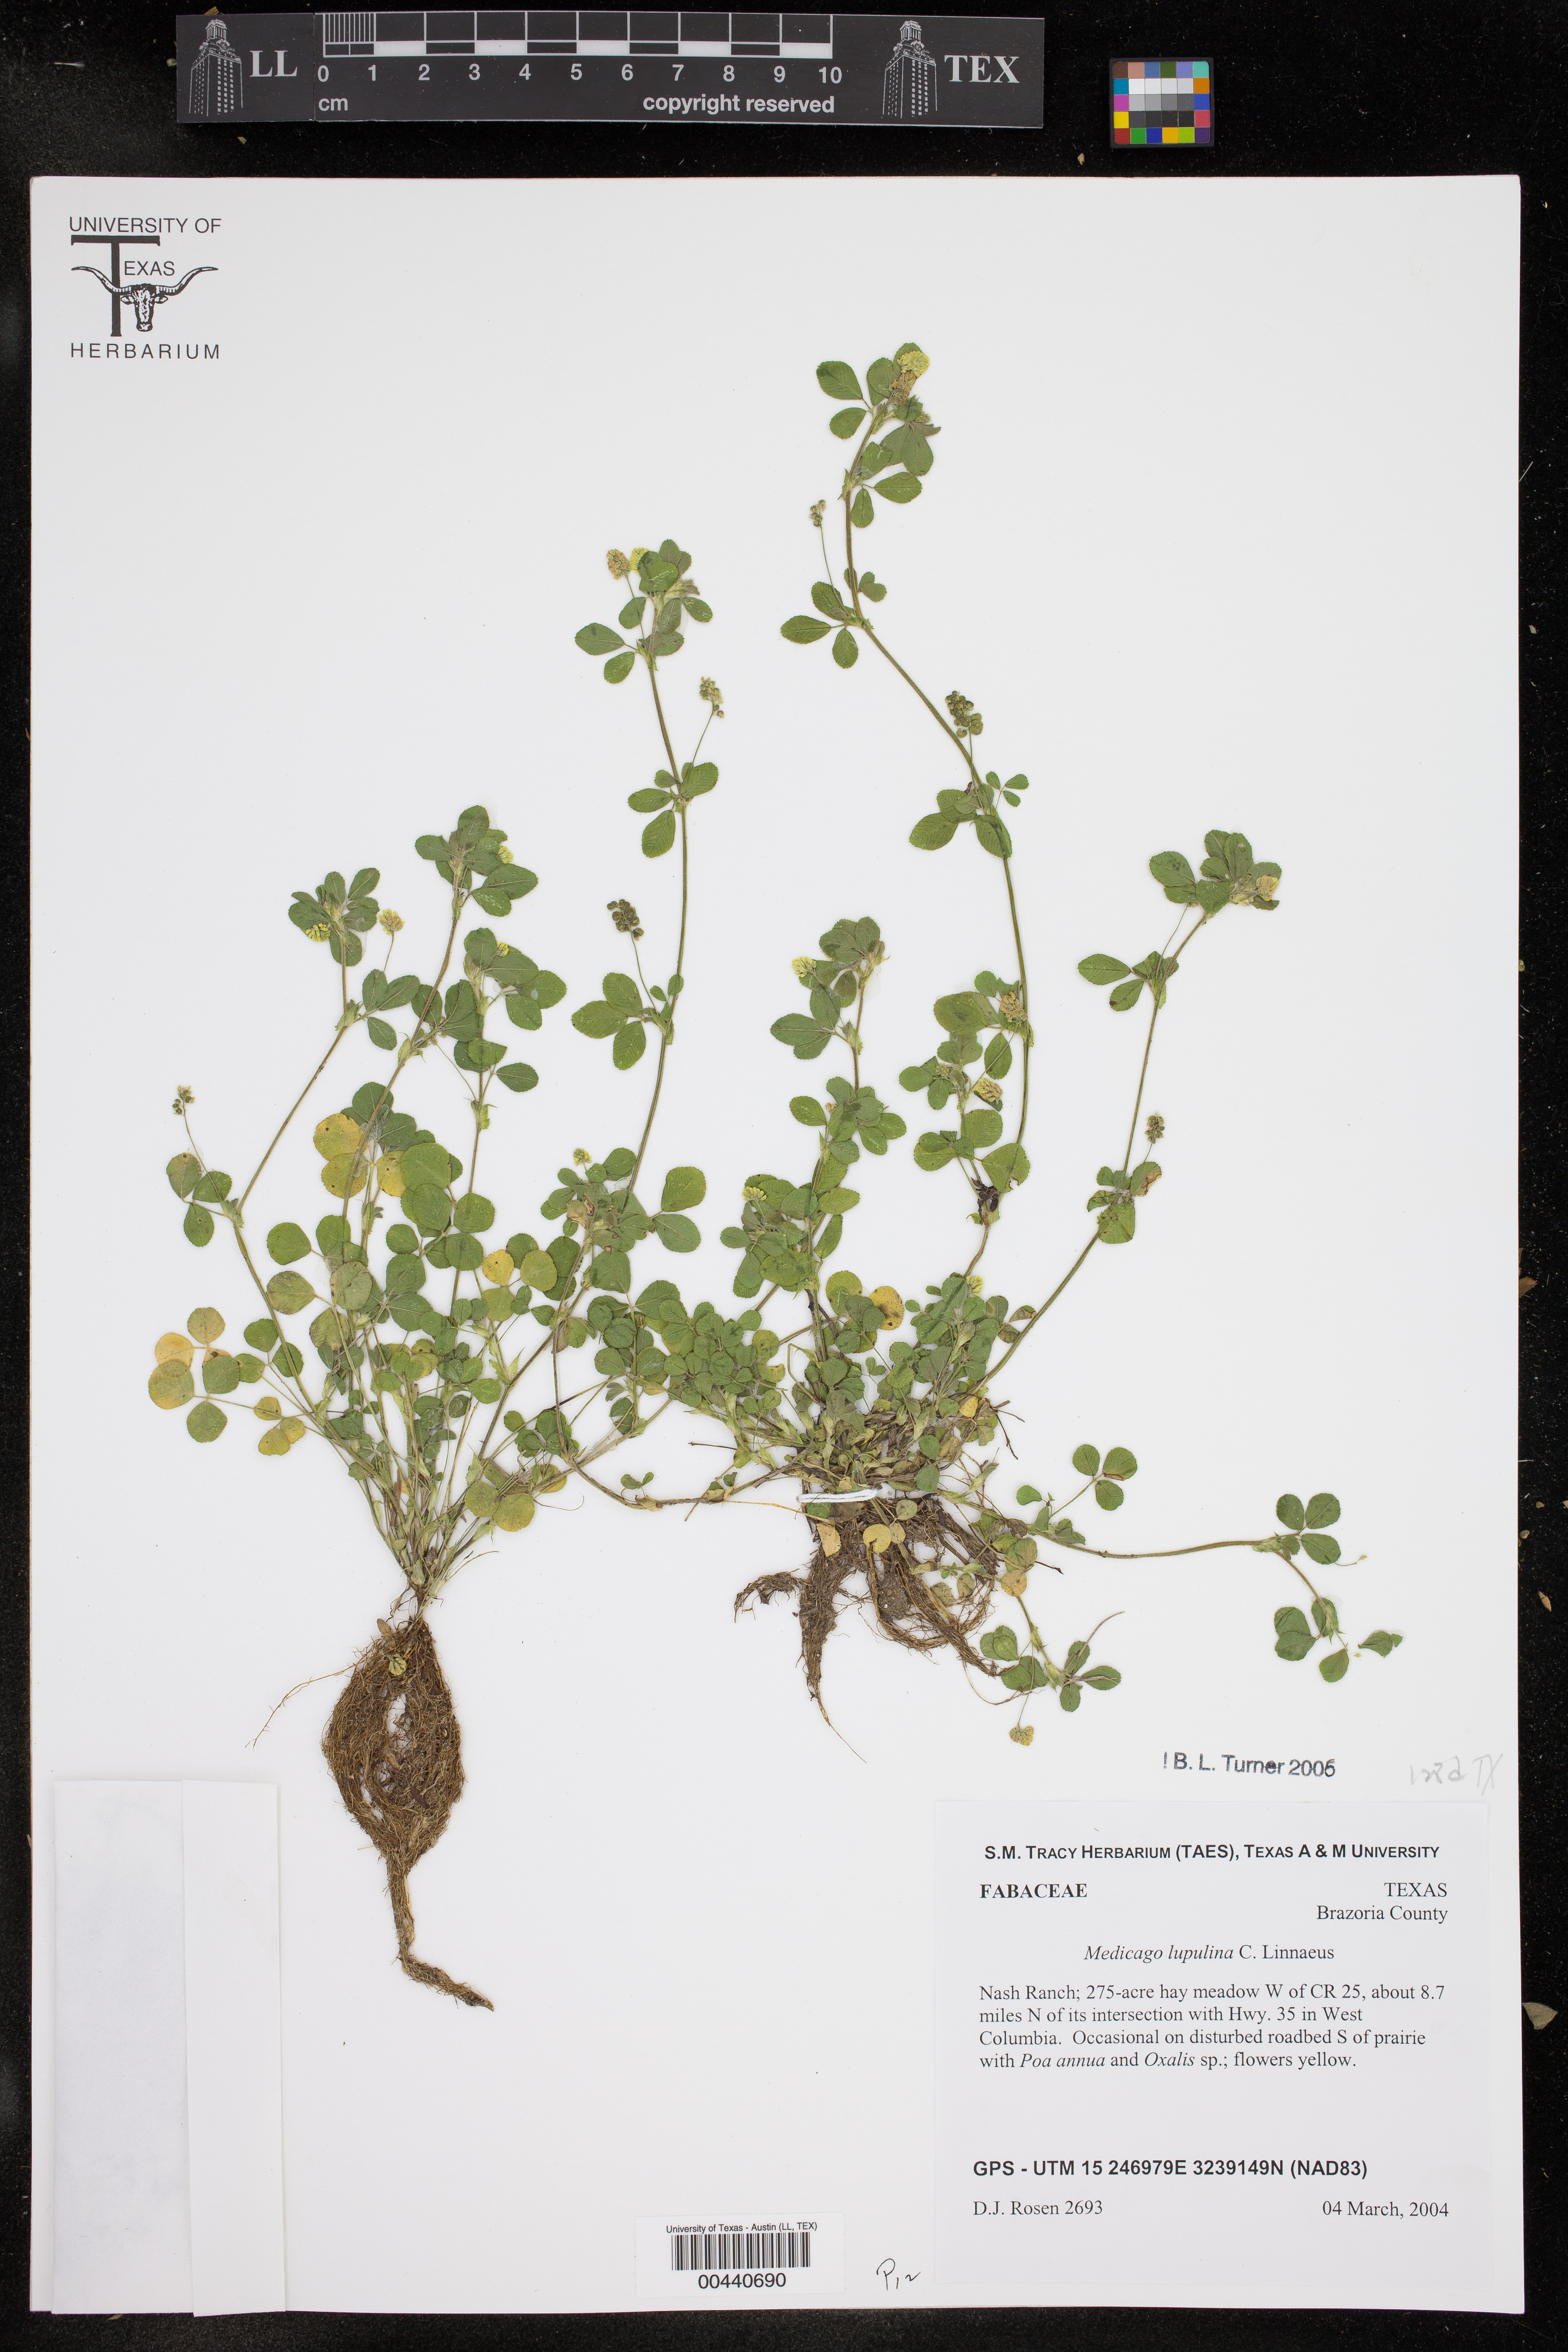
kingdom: Plantae
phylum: Tracheophyta
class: Magnoliopsida
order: Fabales
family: Fabaceae
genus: Medicago
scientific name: Medicago lupulina
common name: Black medick
